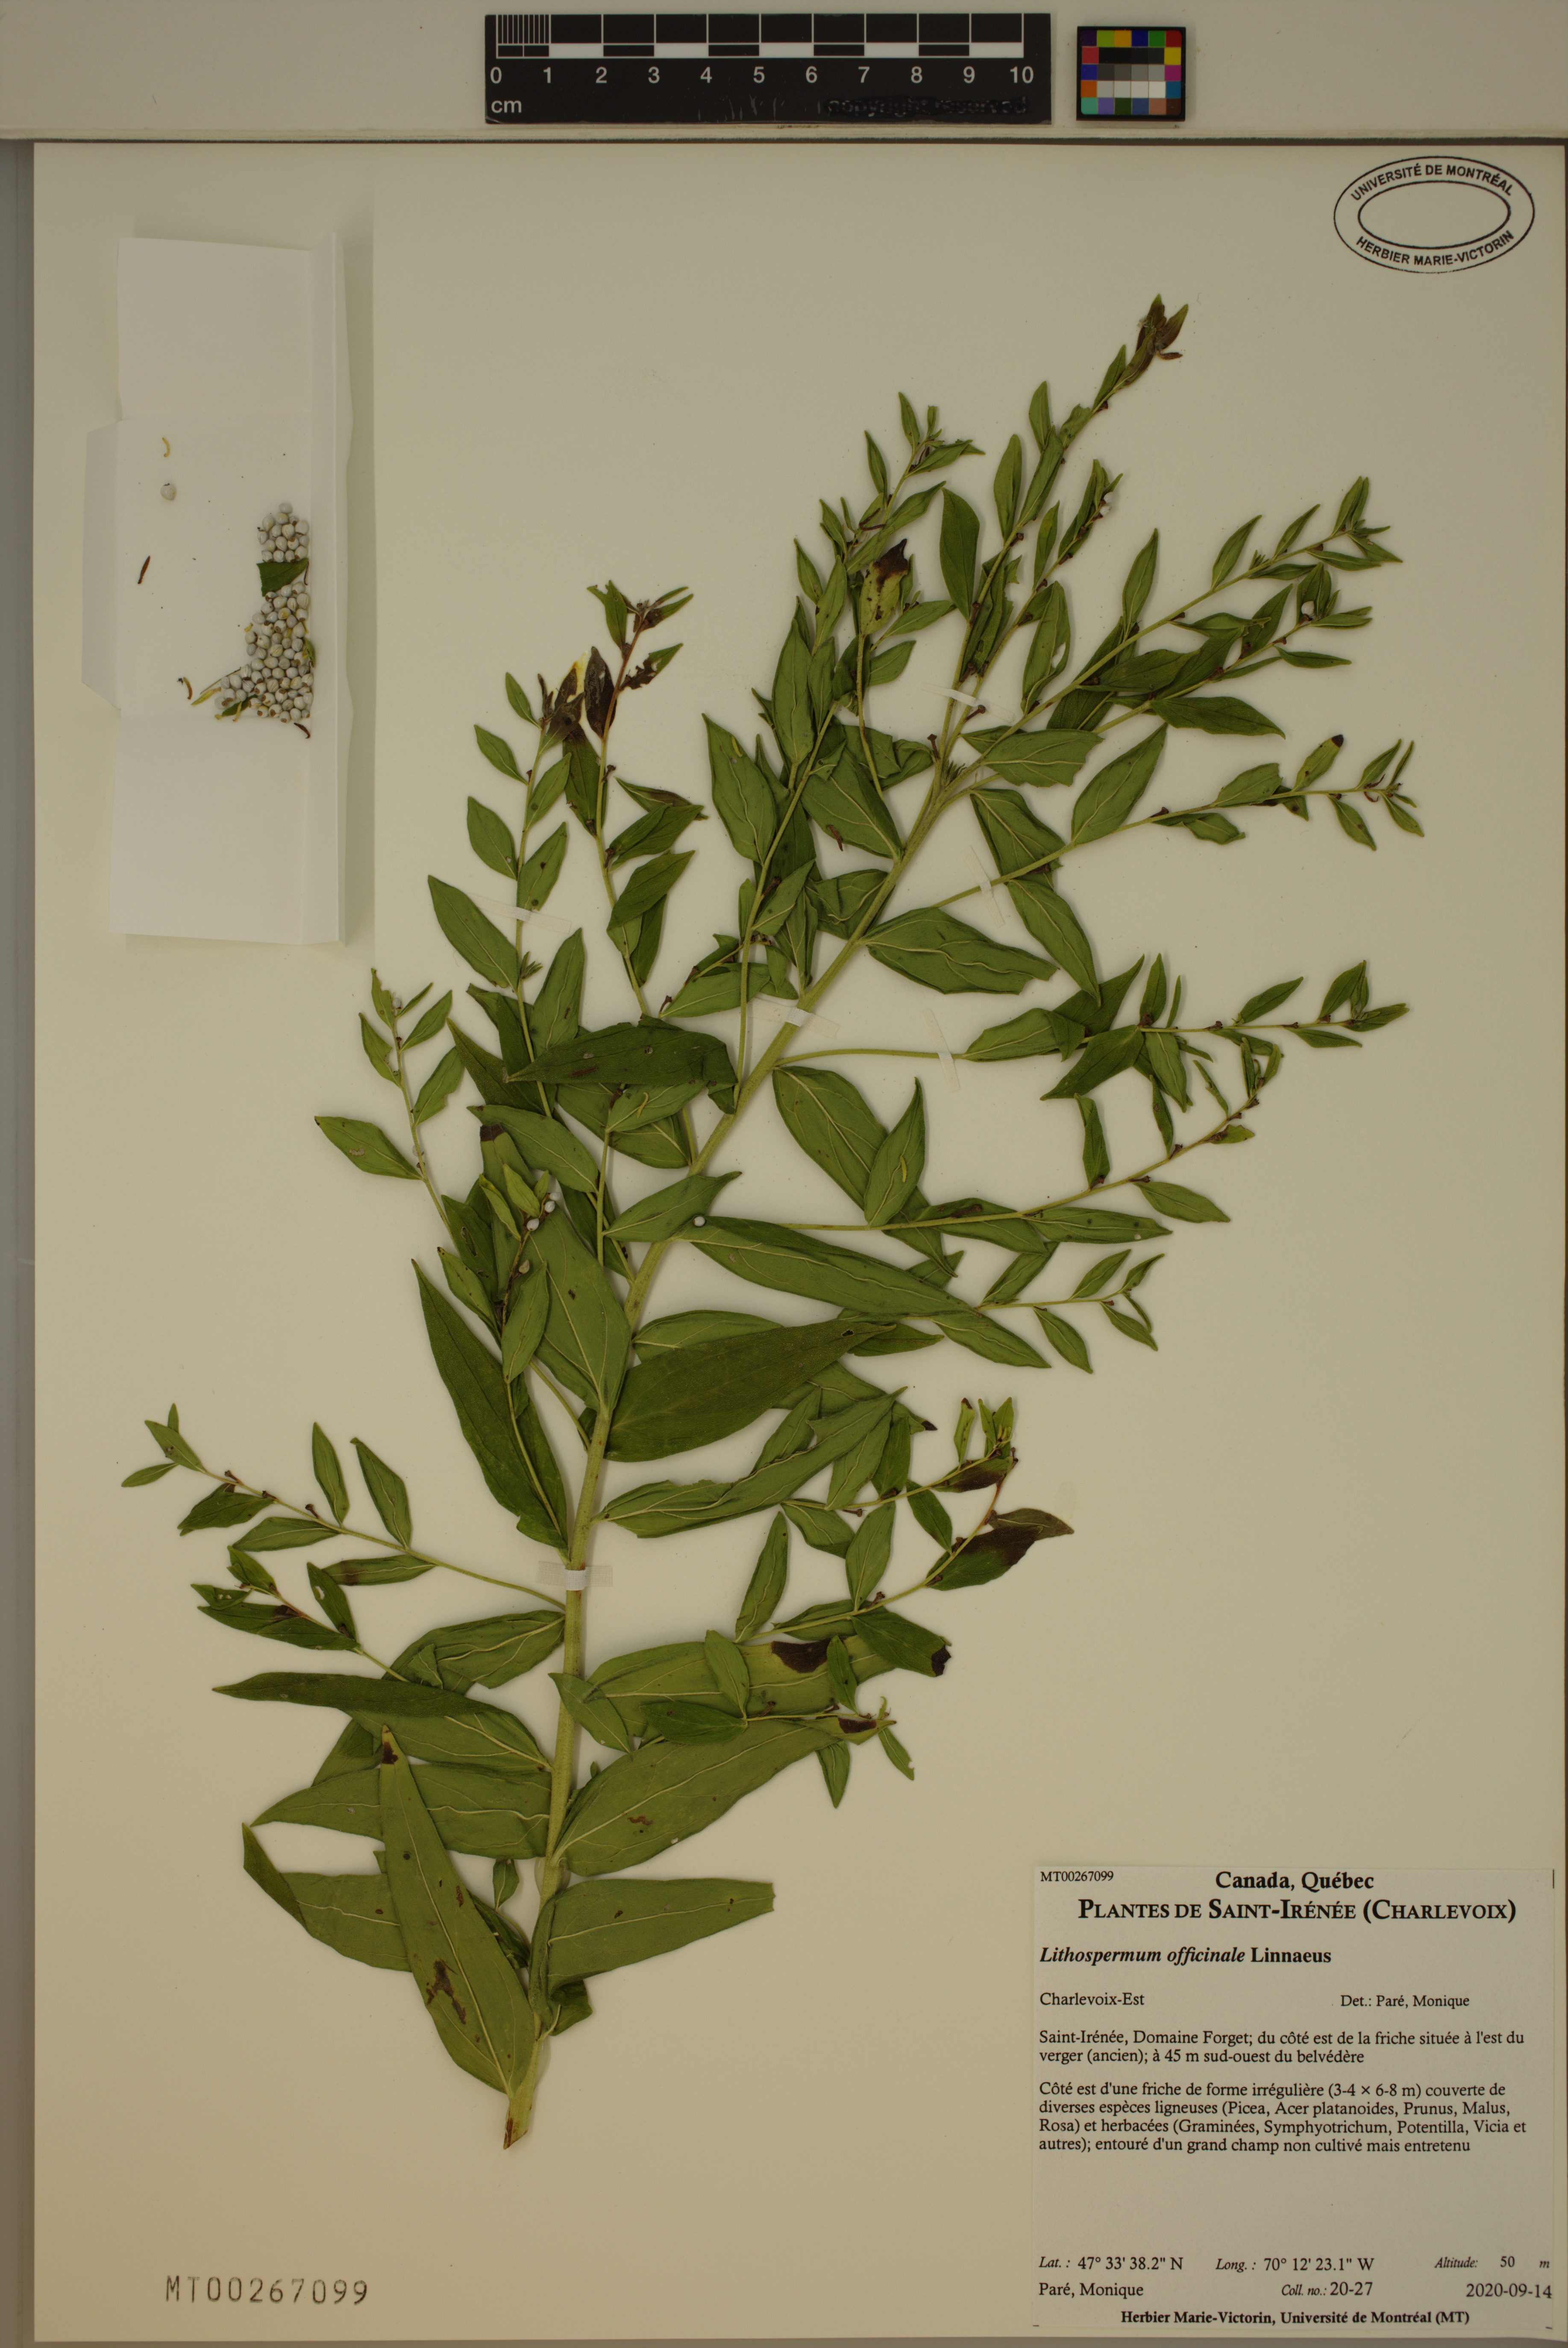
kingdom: Plantae
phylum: Tracheophyta
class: Magnoliopsida
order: Boraginales
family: Boraginaceae
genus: Lithospermum
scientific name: Lithospermum officinale
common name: Common gromwell
